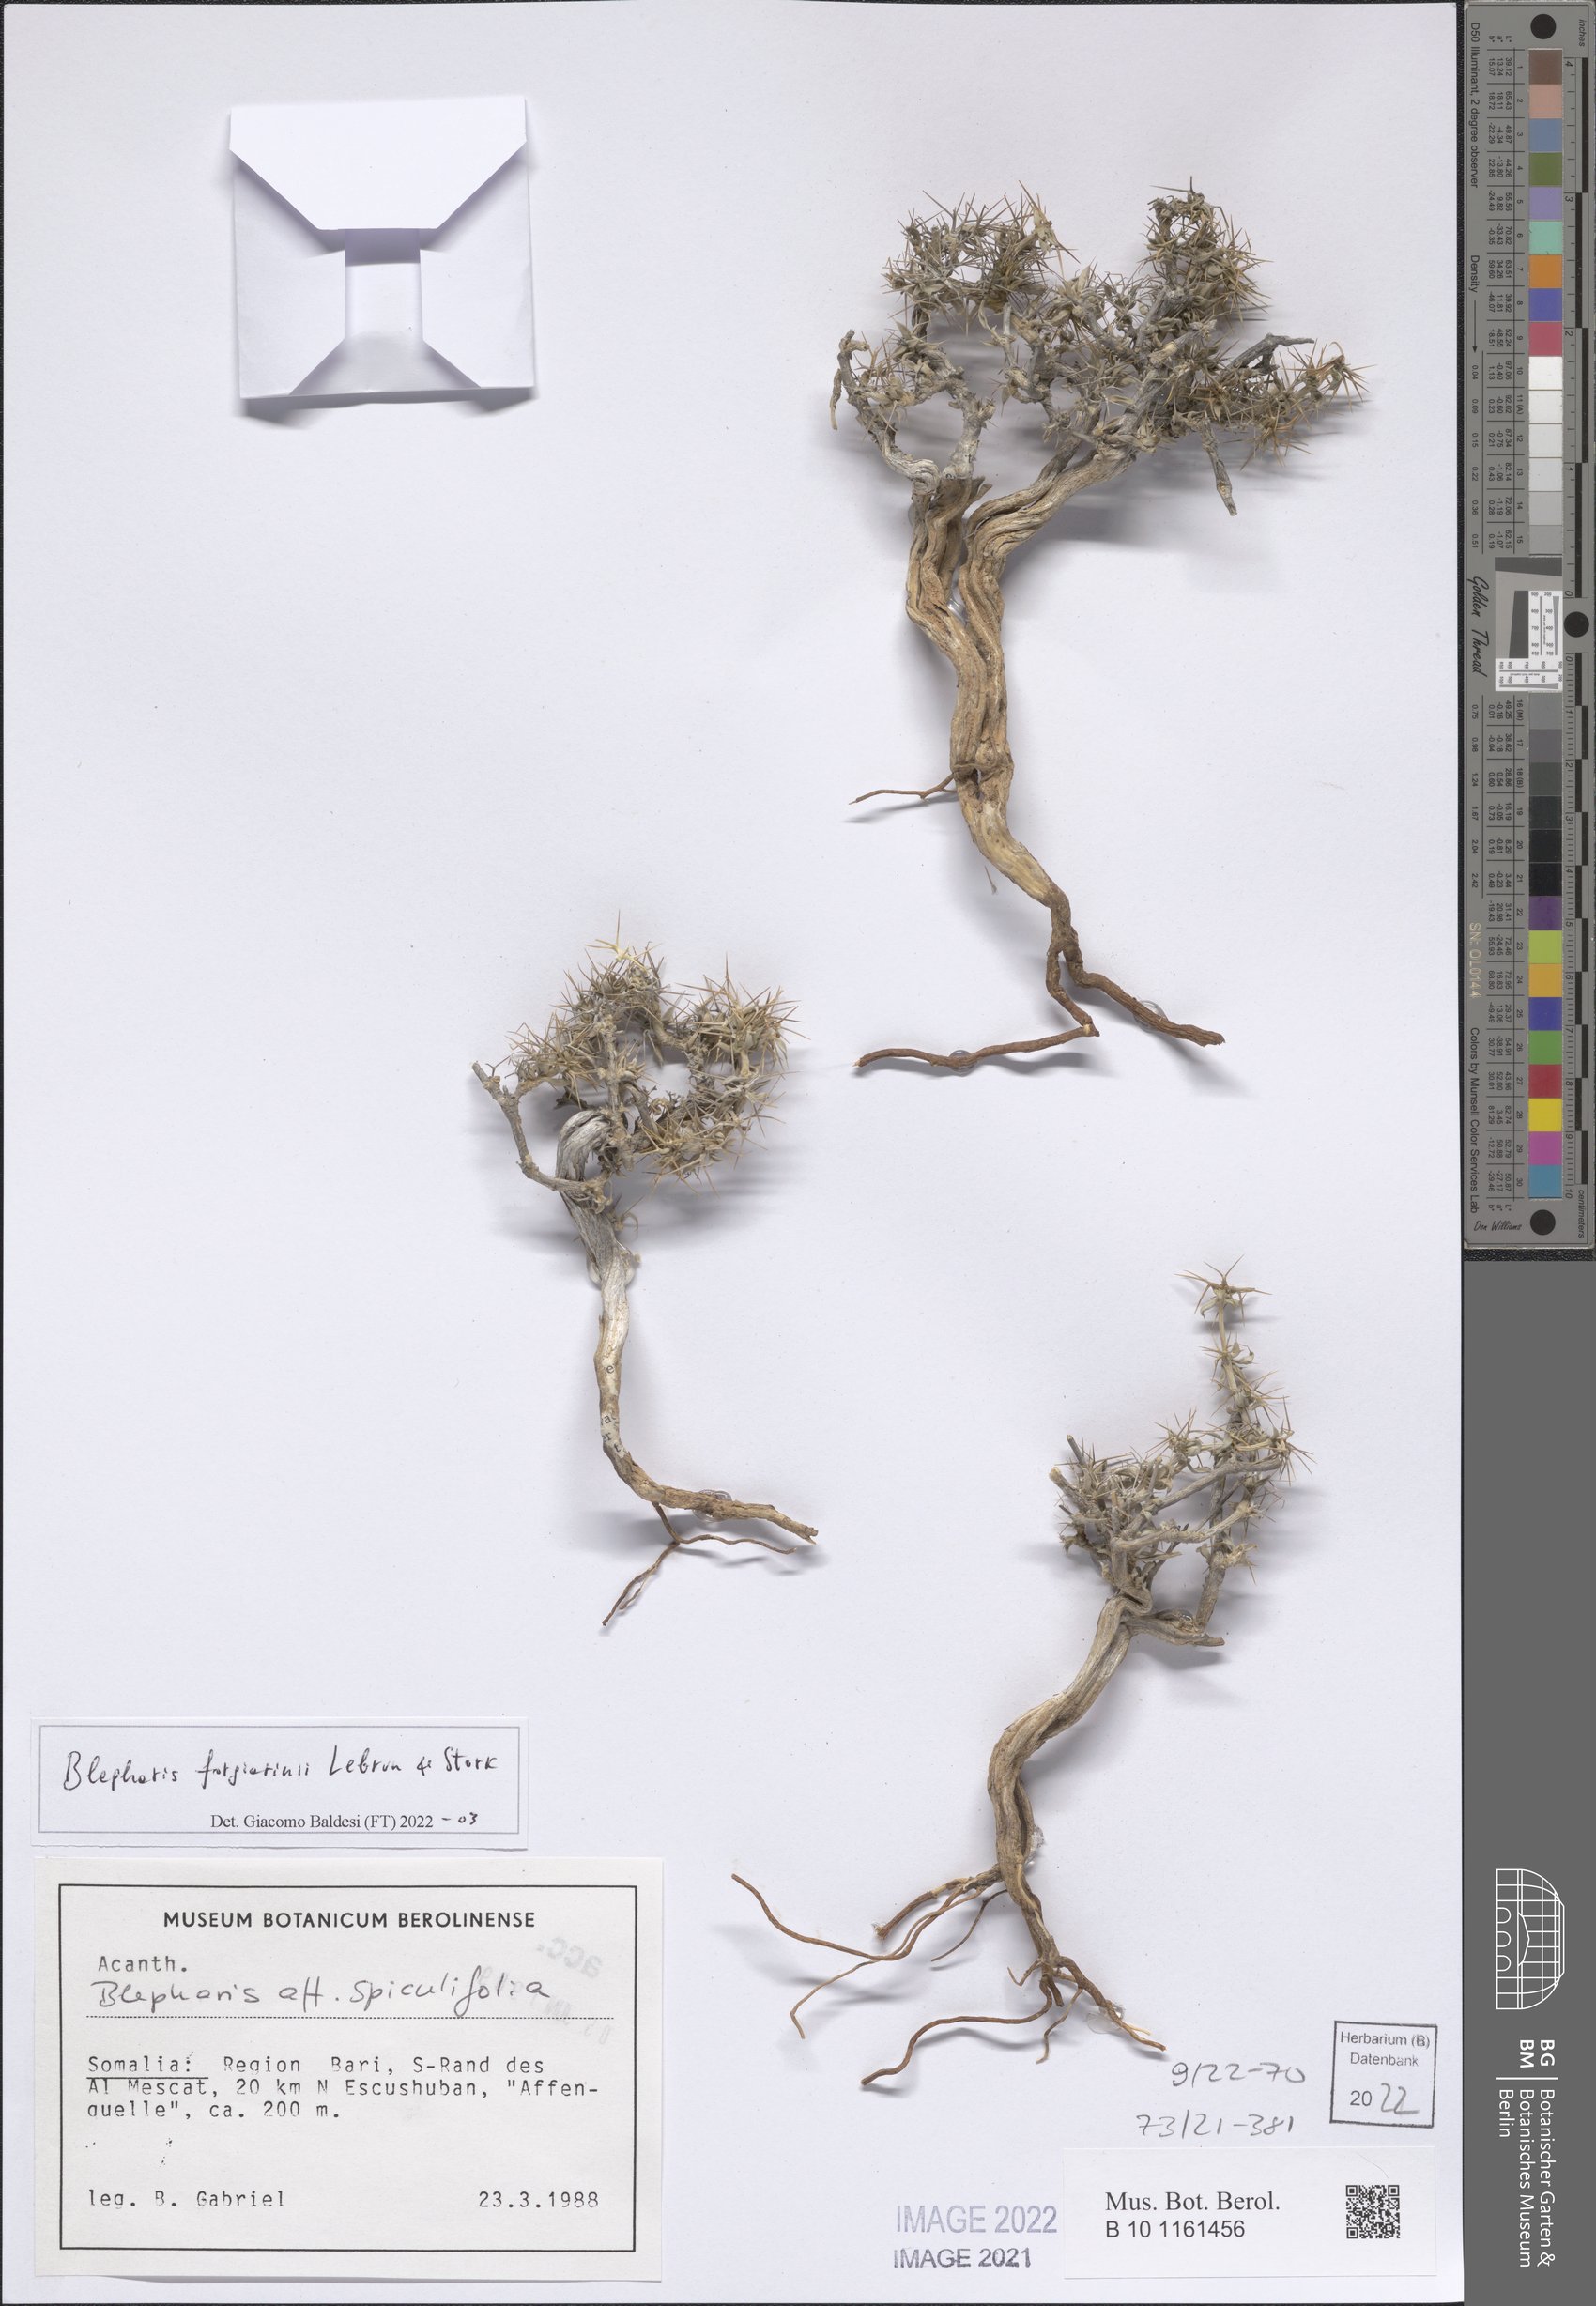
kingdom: Plantae
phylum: Tracheophyta
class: Magnoliopsida
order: Lamiales
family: Acanthaceae
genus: Blepharis
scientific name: Blepharis forgiarinii
